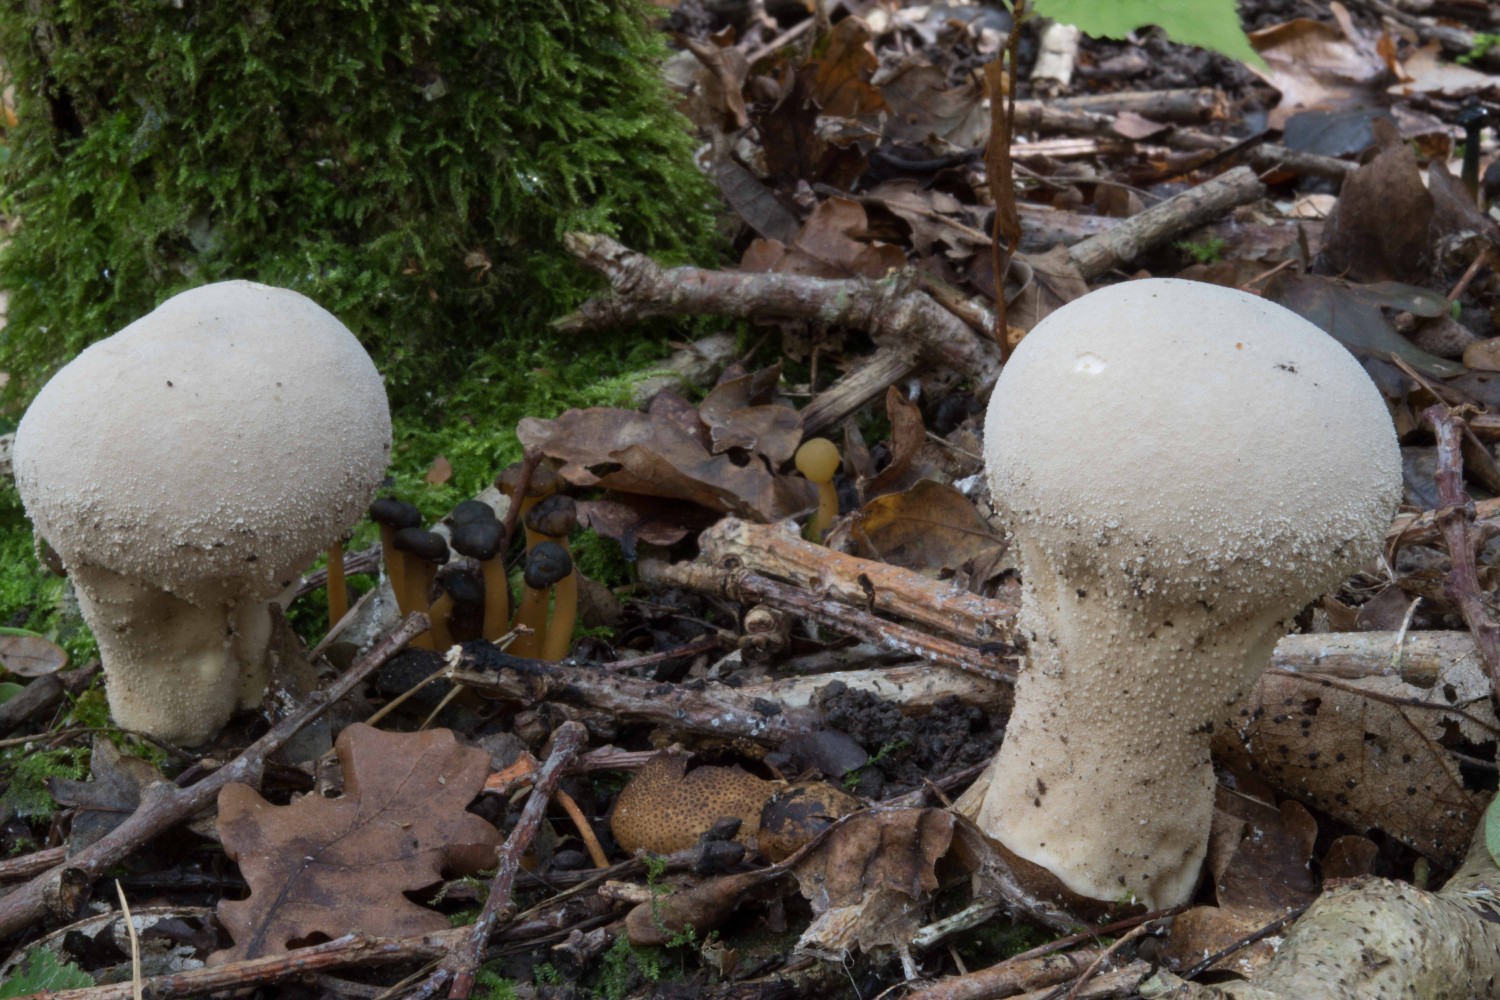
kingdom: Fungi
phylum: Basidiomycota
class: Agaricomycetes
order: Agaricales
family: Lycoperdaceae
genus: Lycoperdon
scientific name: Lycoperdon excipuliforme
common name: højstokket støvbold
